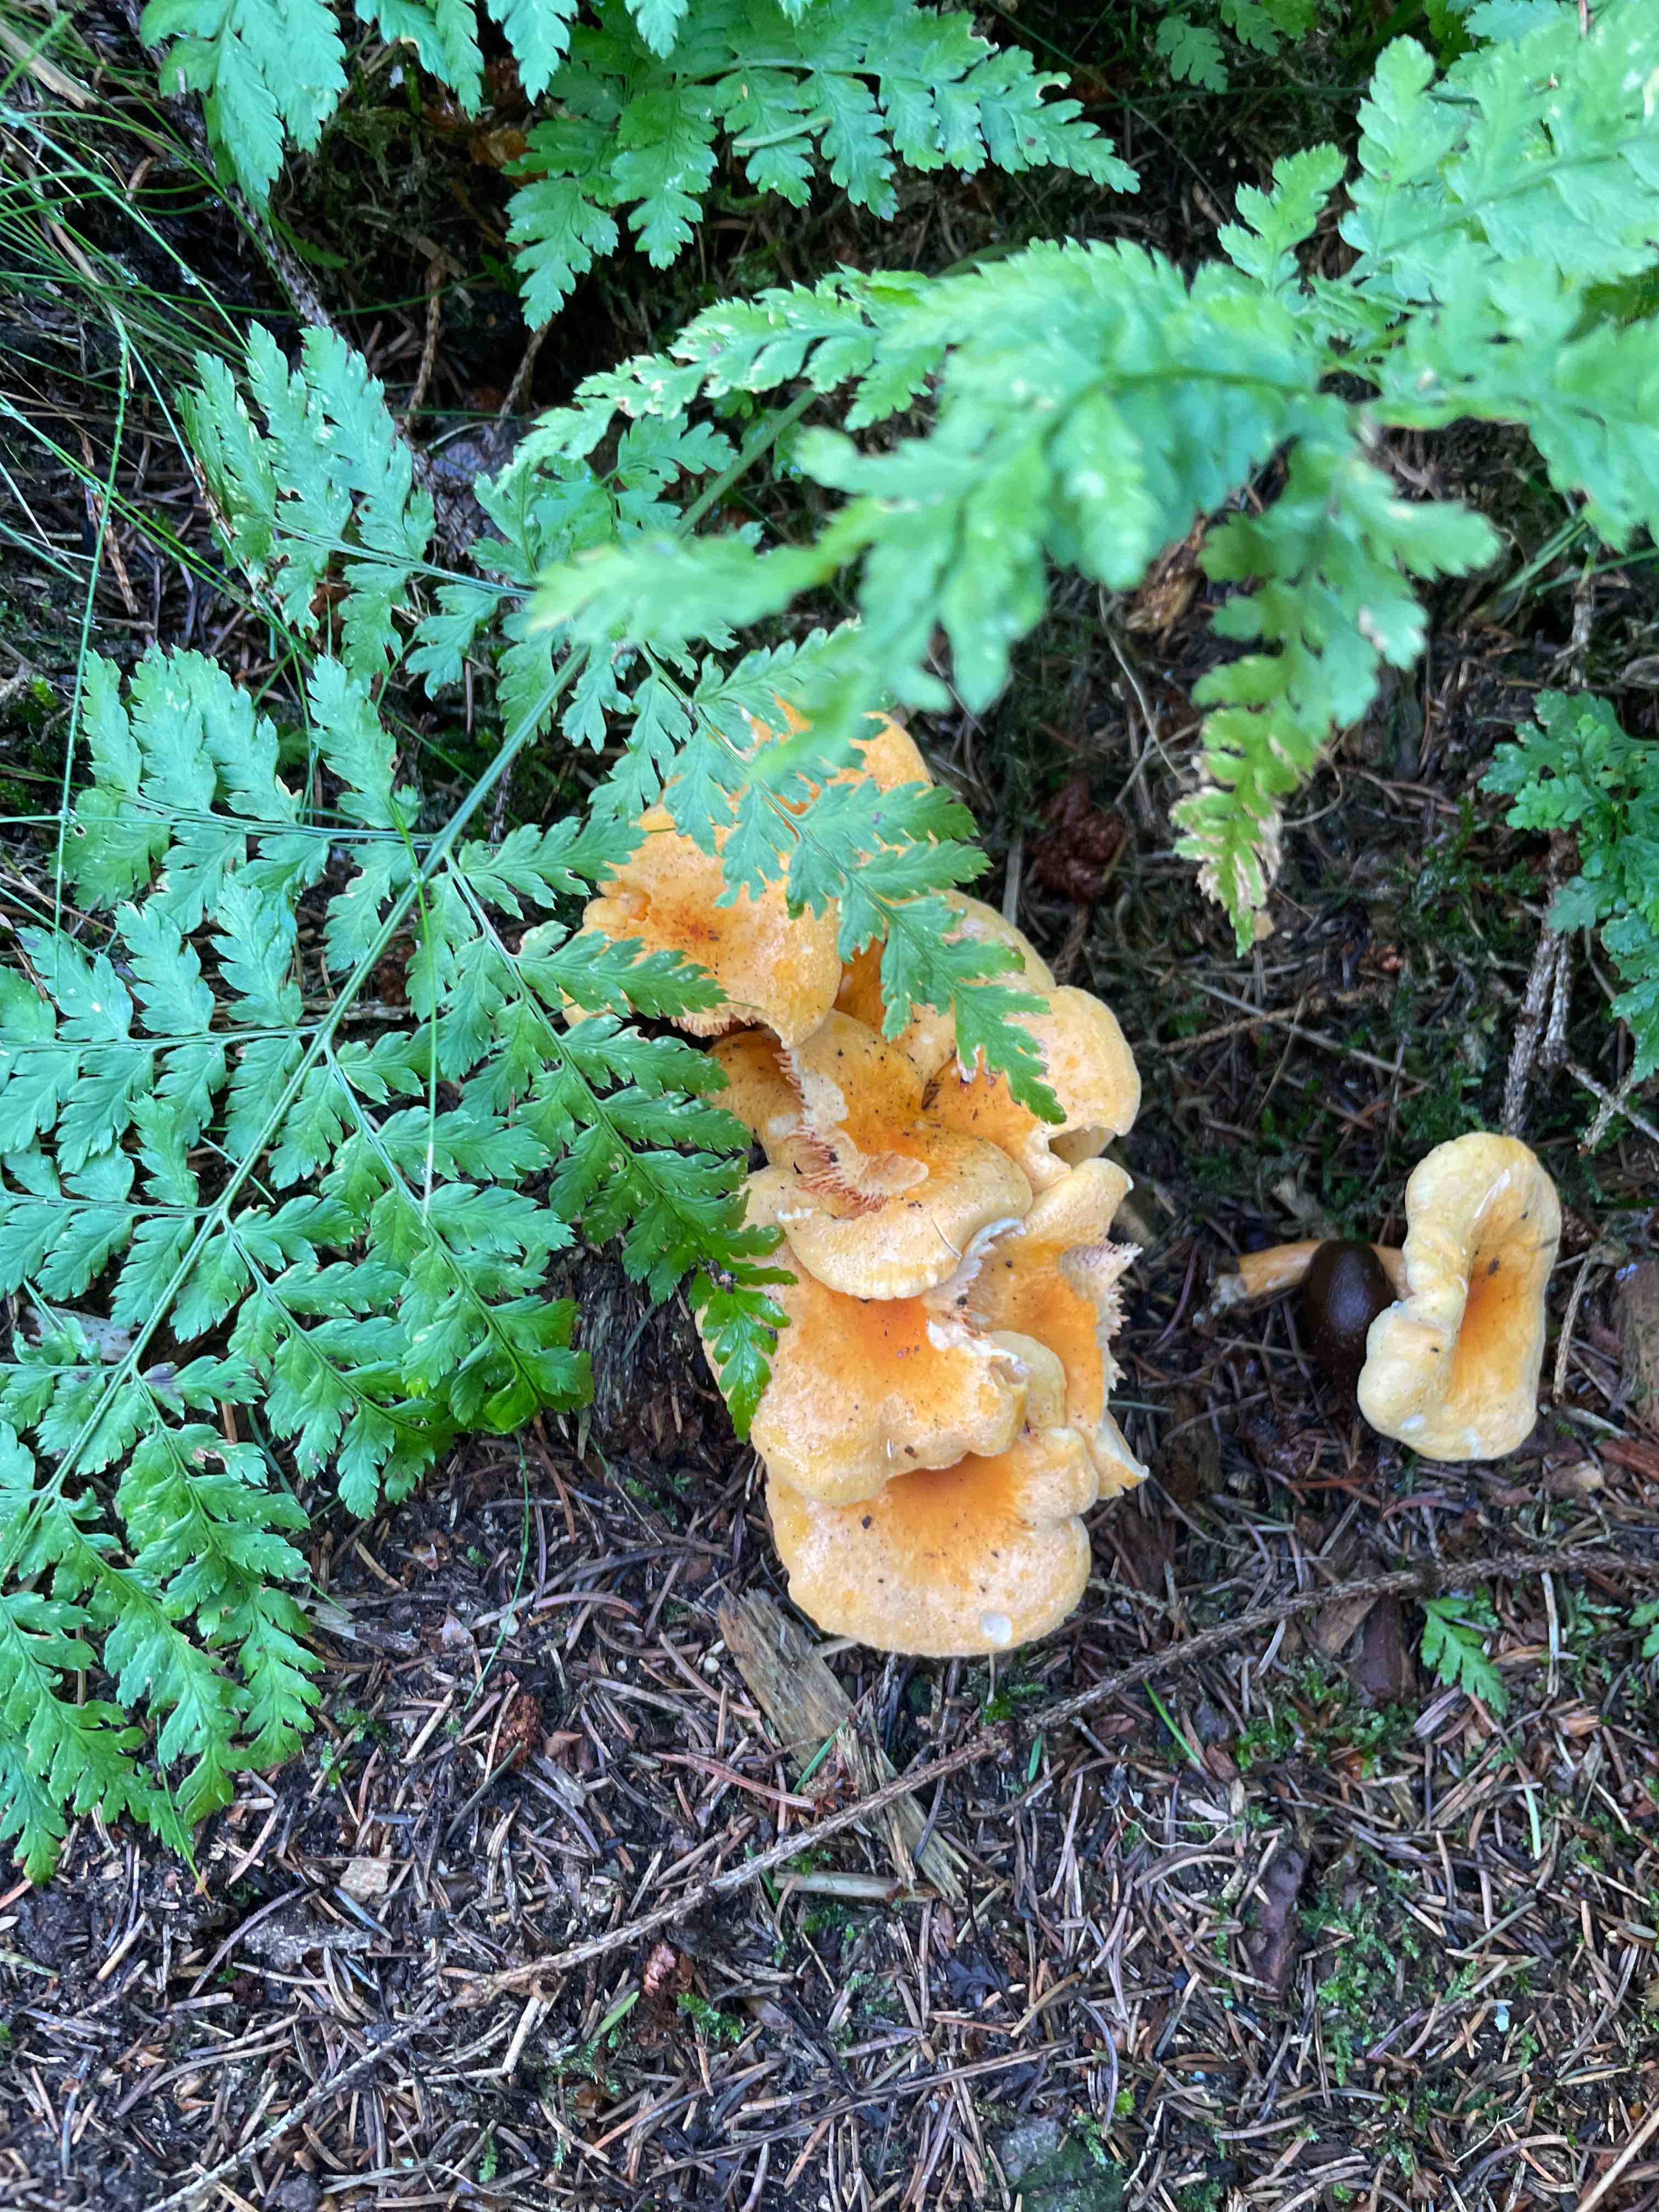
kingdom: Fungi
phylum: Basidiomycota
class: Agaricomycetes
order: Boletales
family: Hygrophoropsidaceae
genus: Hygrophoropsis
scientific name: Hygrophoropsis aurantiaca
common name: almindelig orangekantarel
